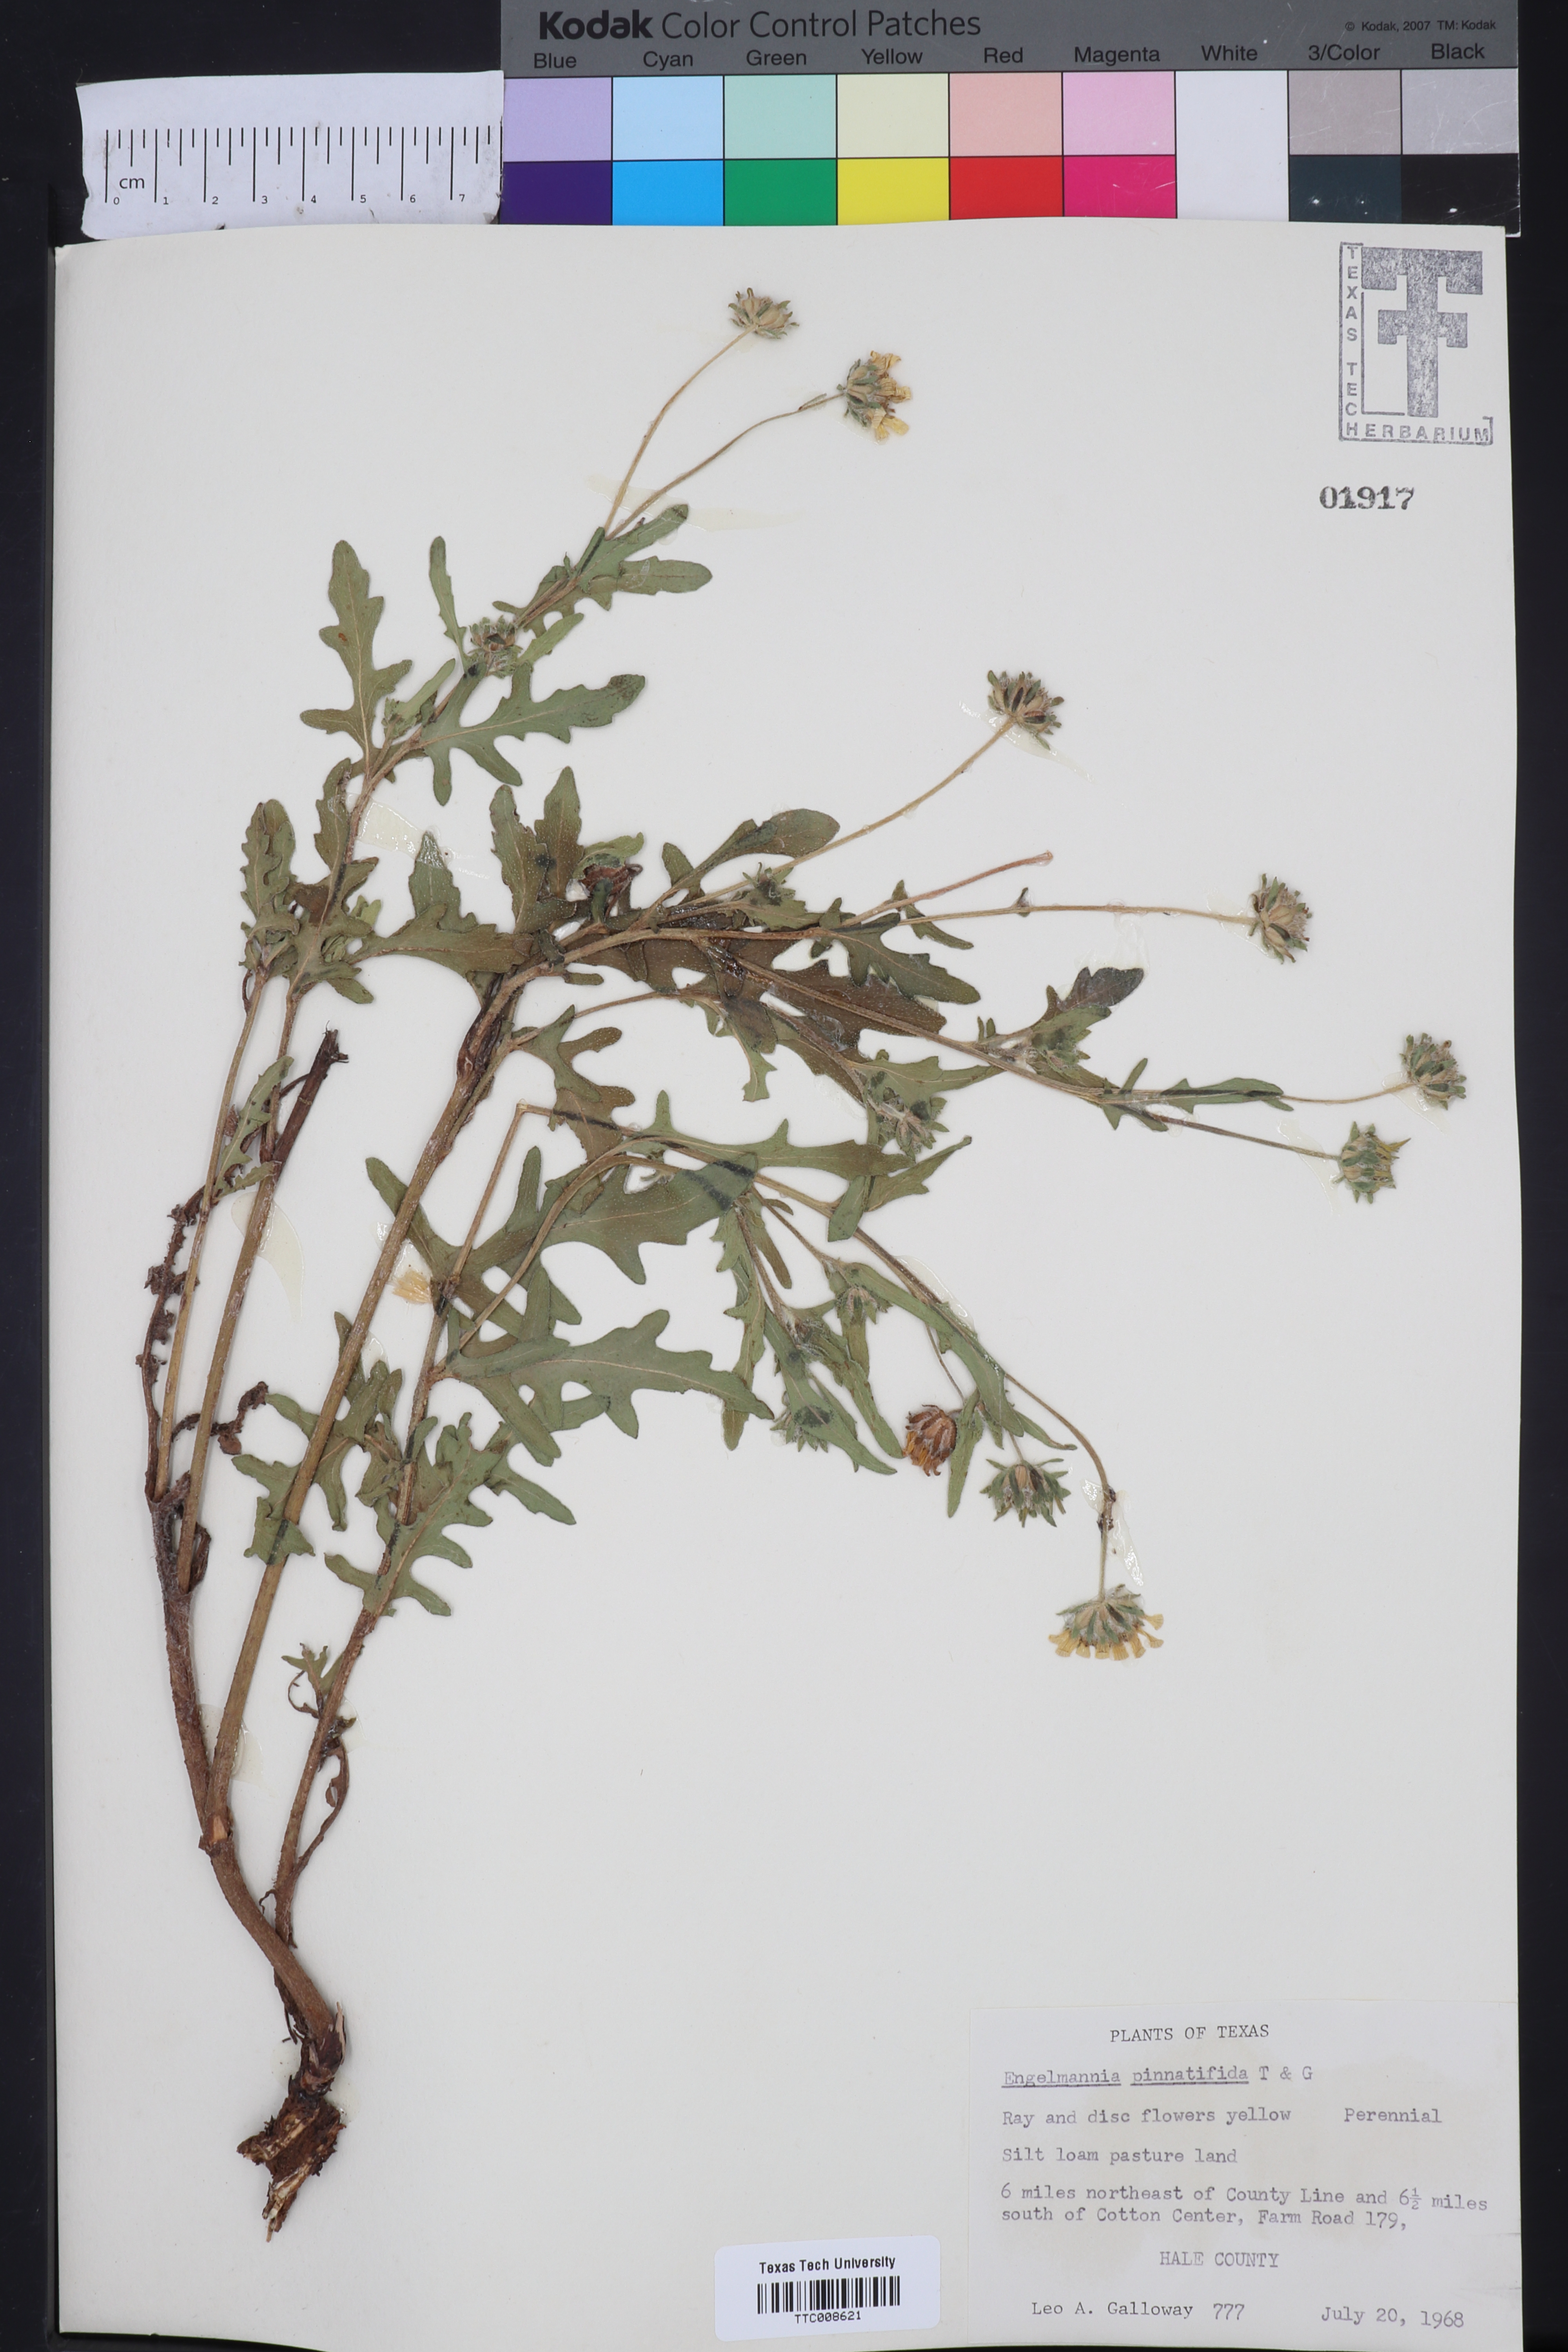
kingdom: Plantae
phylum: Tracheophyta
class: Magnoliopsida
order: Asterales
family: Asteraceae
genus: Engelmannia
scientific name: Engelmannia peristenia
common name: Engelmann's daisy
